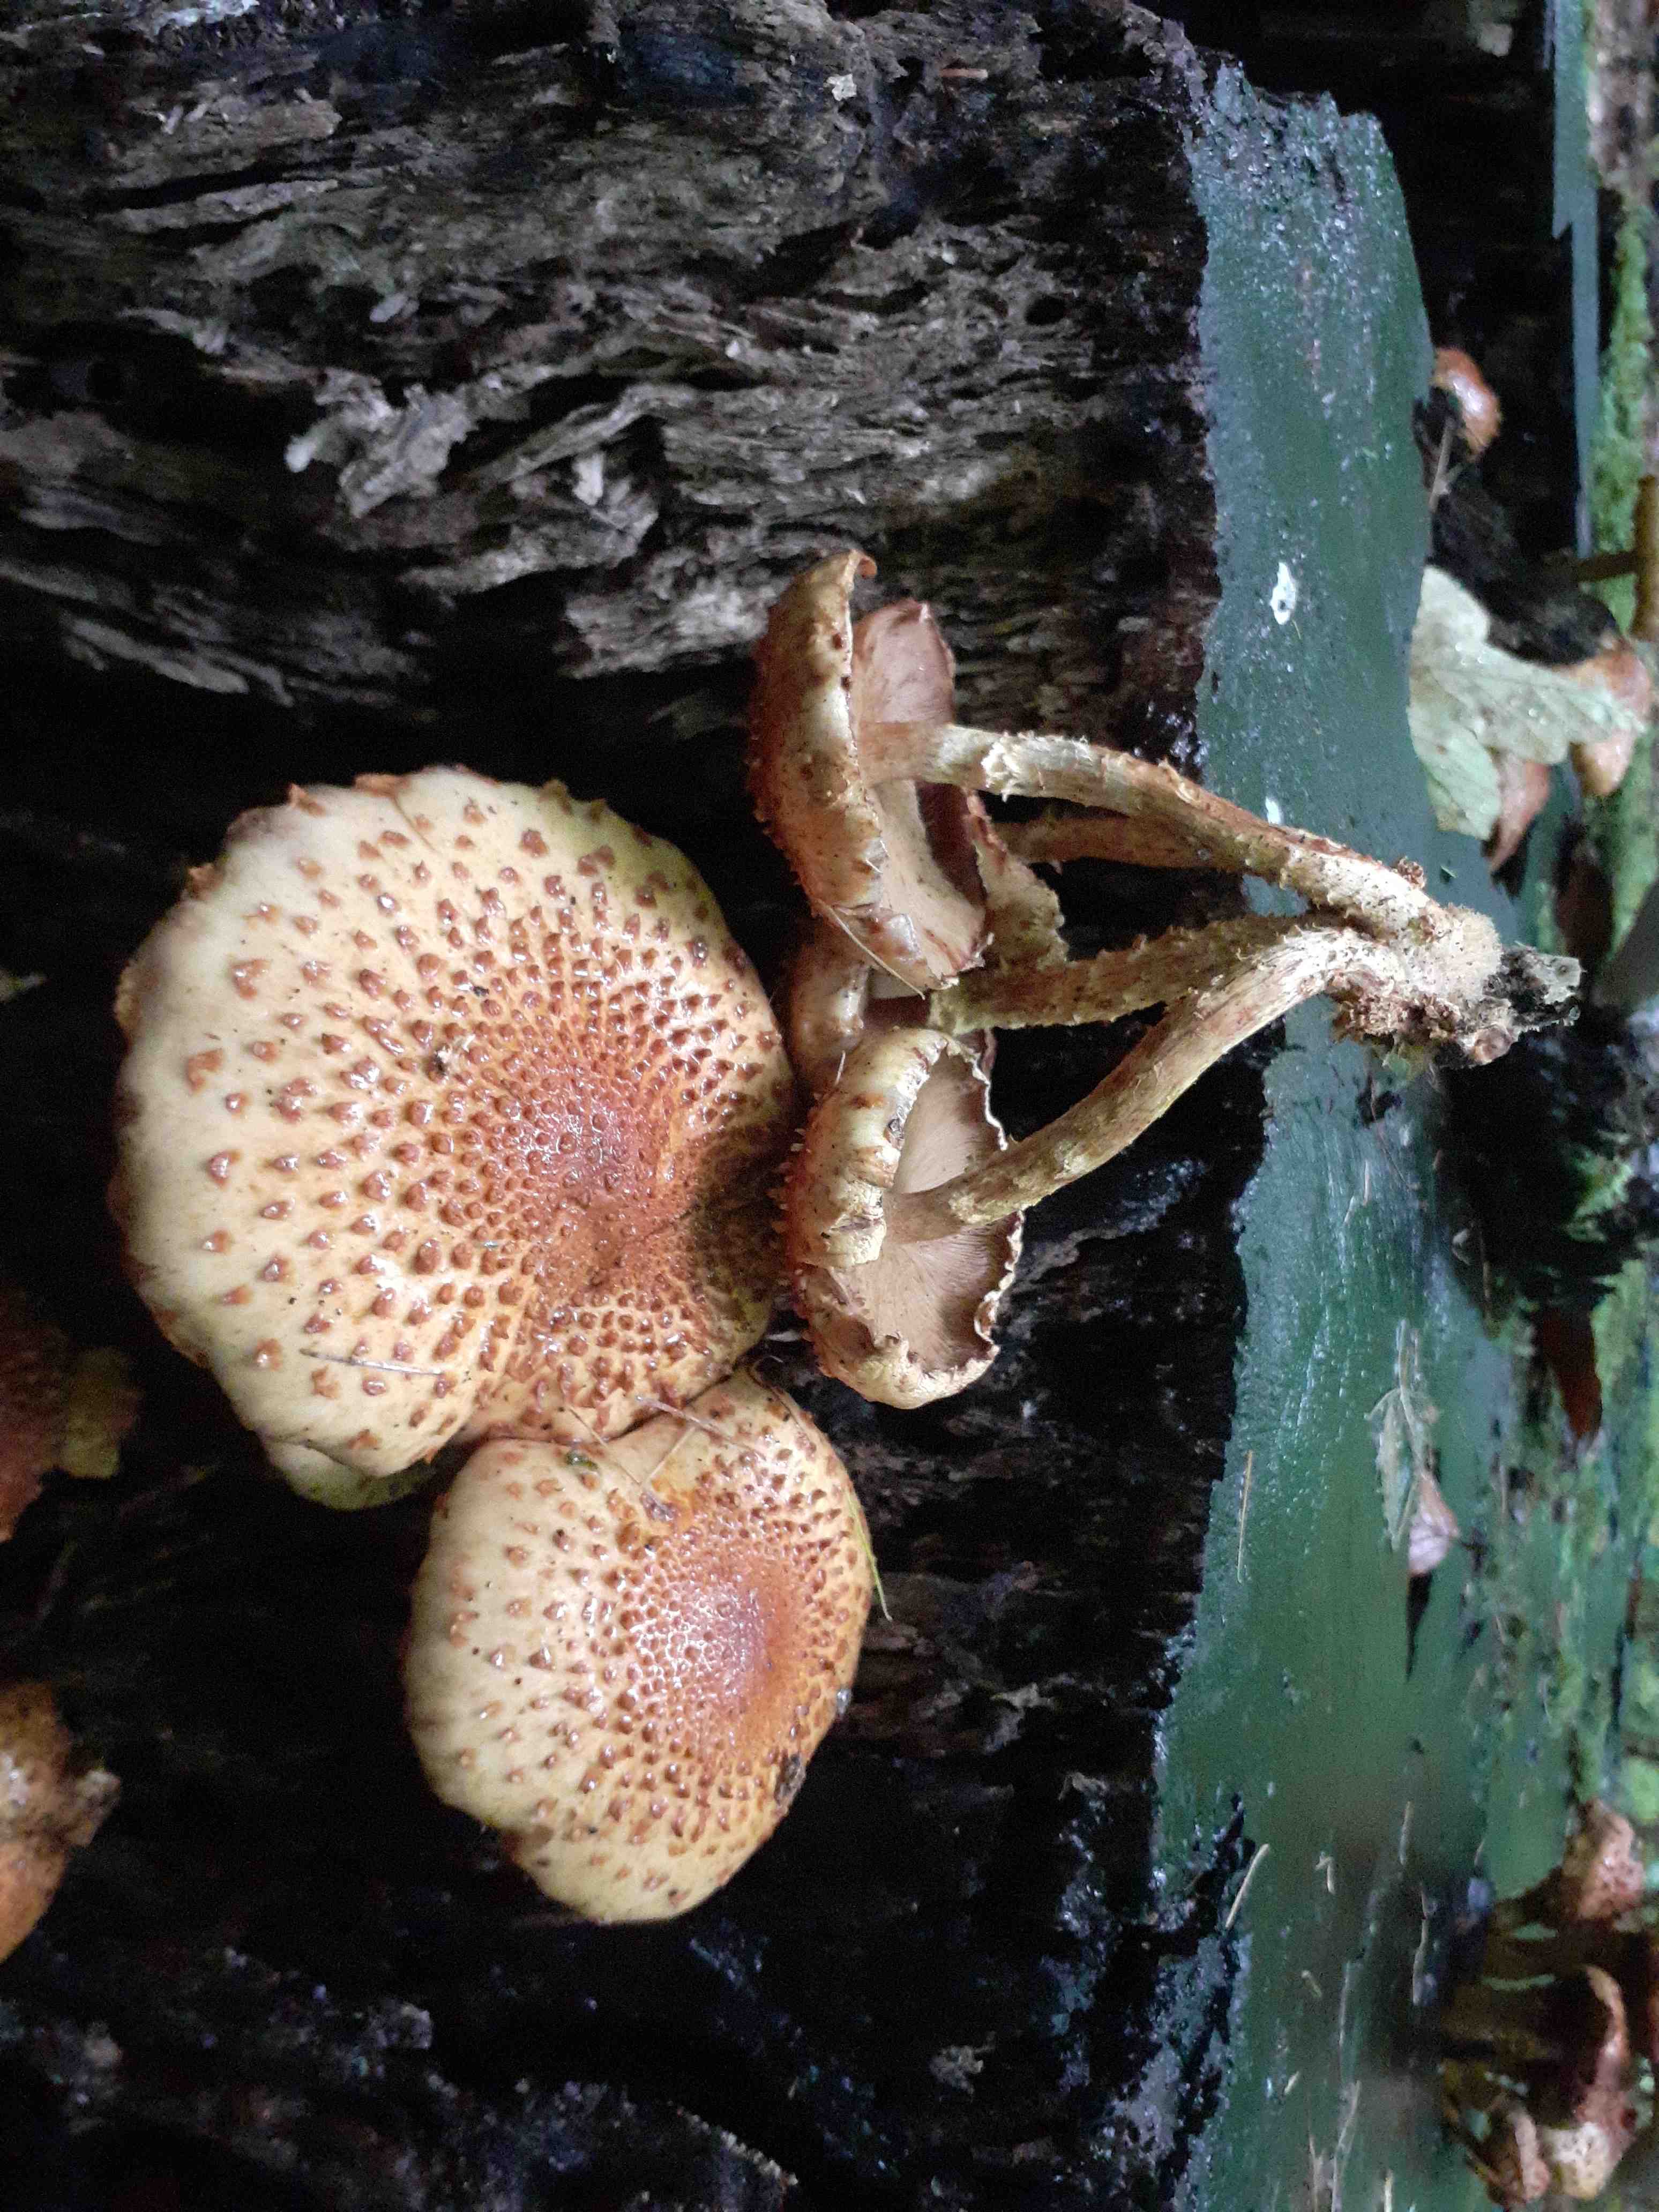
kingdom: Fungi
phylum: Basidiomycota
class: Agaricomycetes
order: Agaricales
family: Strophariaceae
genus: Pholiota
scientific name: Pholiota squarrosoides
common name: vellugtende skælhat
